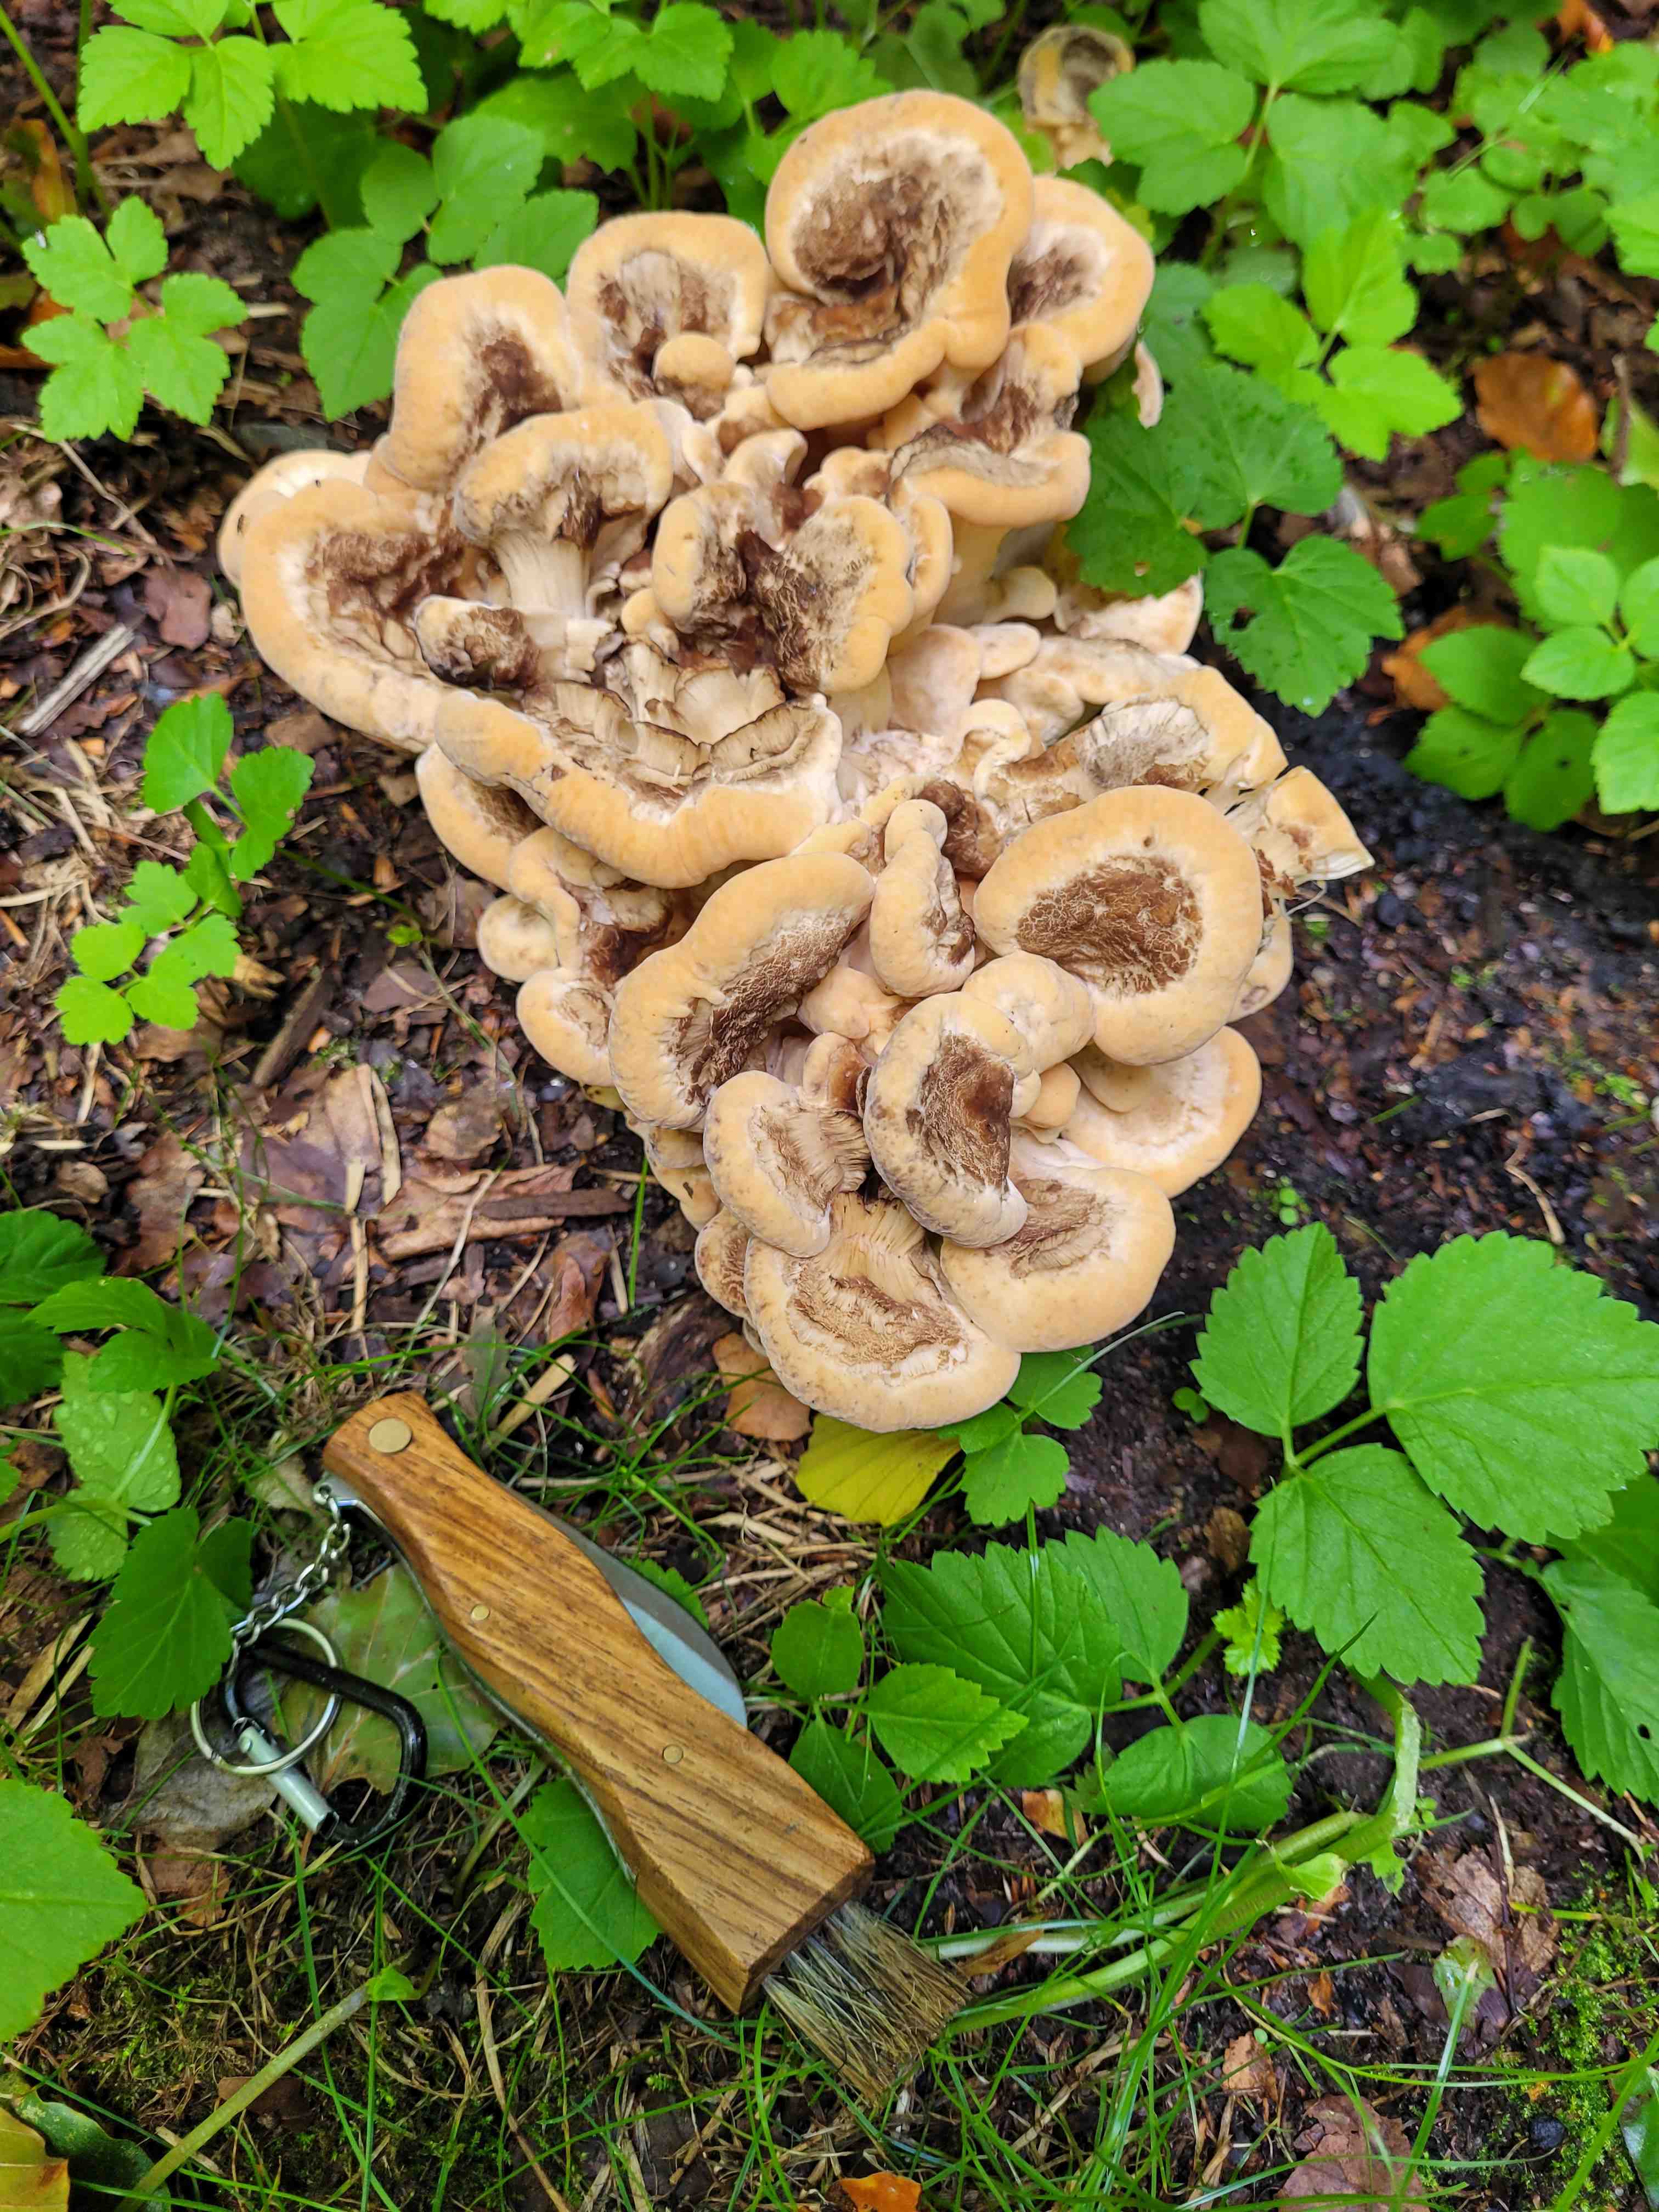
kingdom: Fungi
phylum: Basidiomycota
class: Agaricomycetes
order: Polyporales
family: Meripilaceae
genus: Meripilus
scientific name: Meripilus giganteus
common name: kæmpeporesvamp
